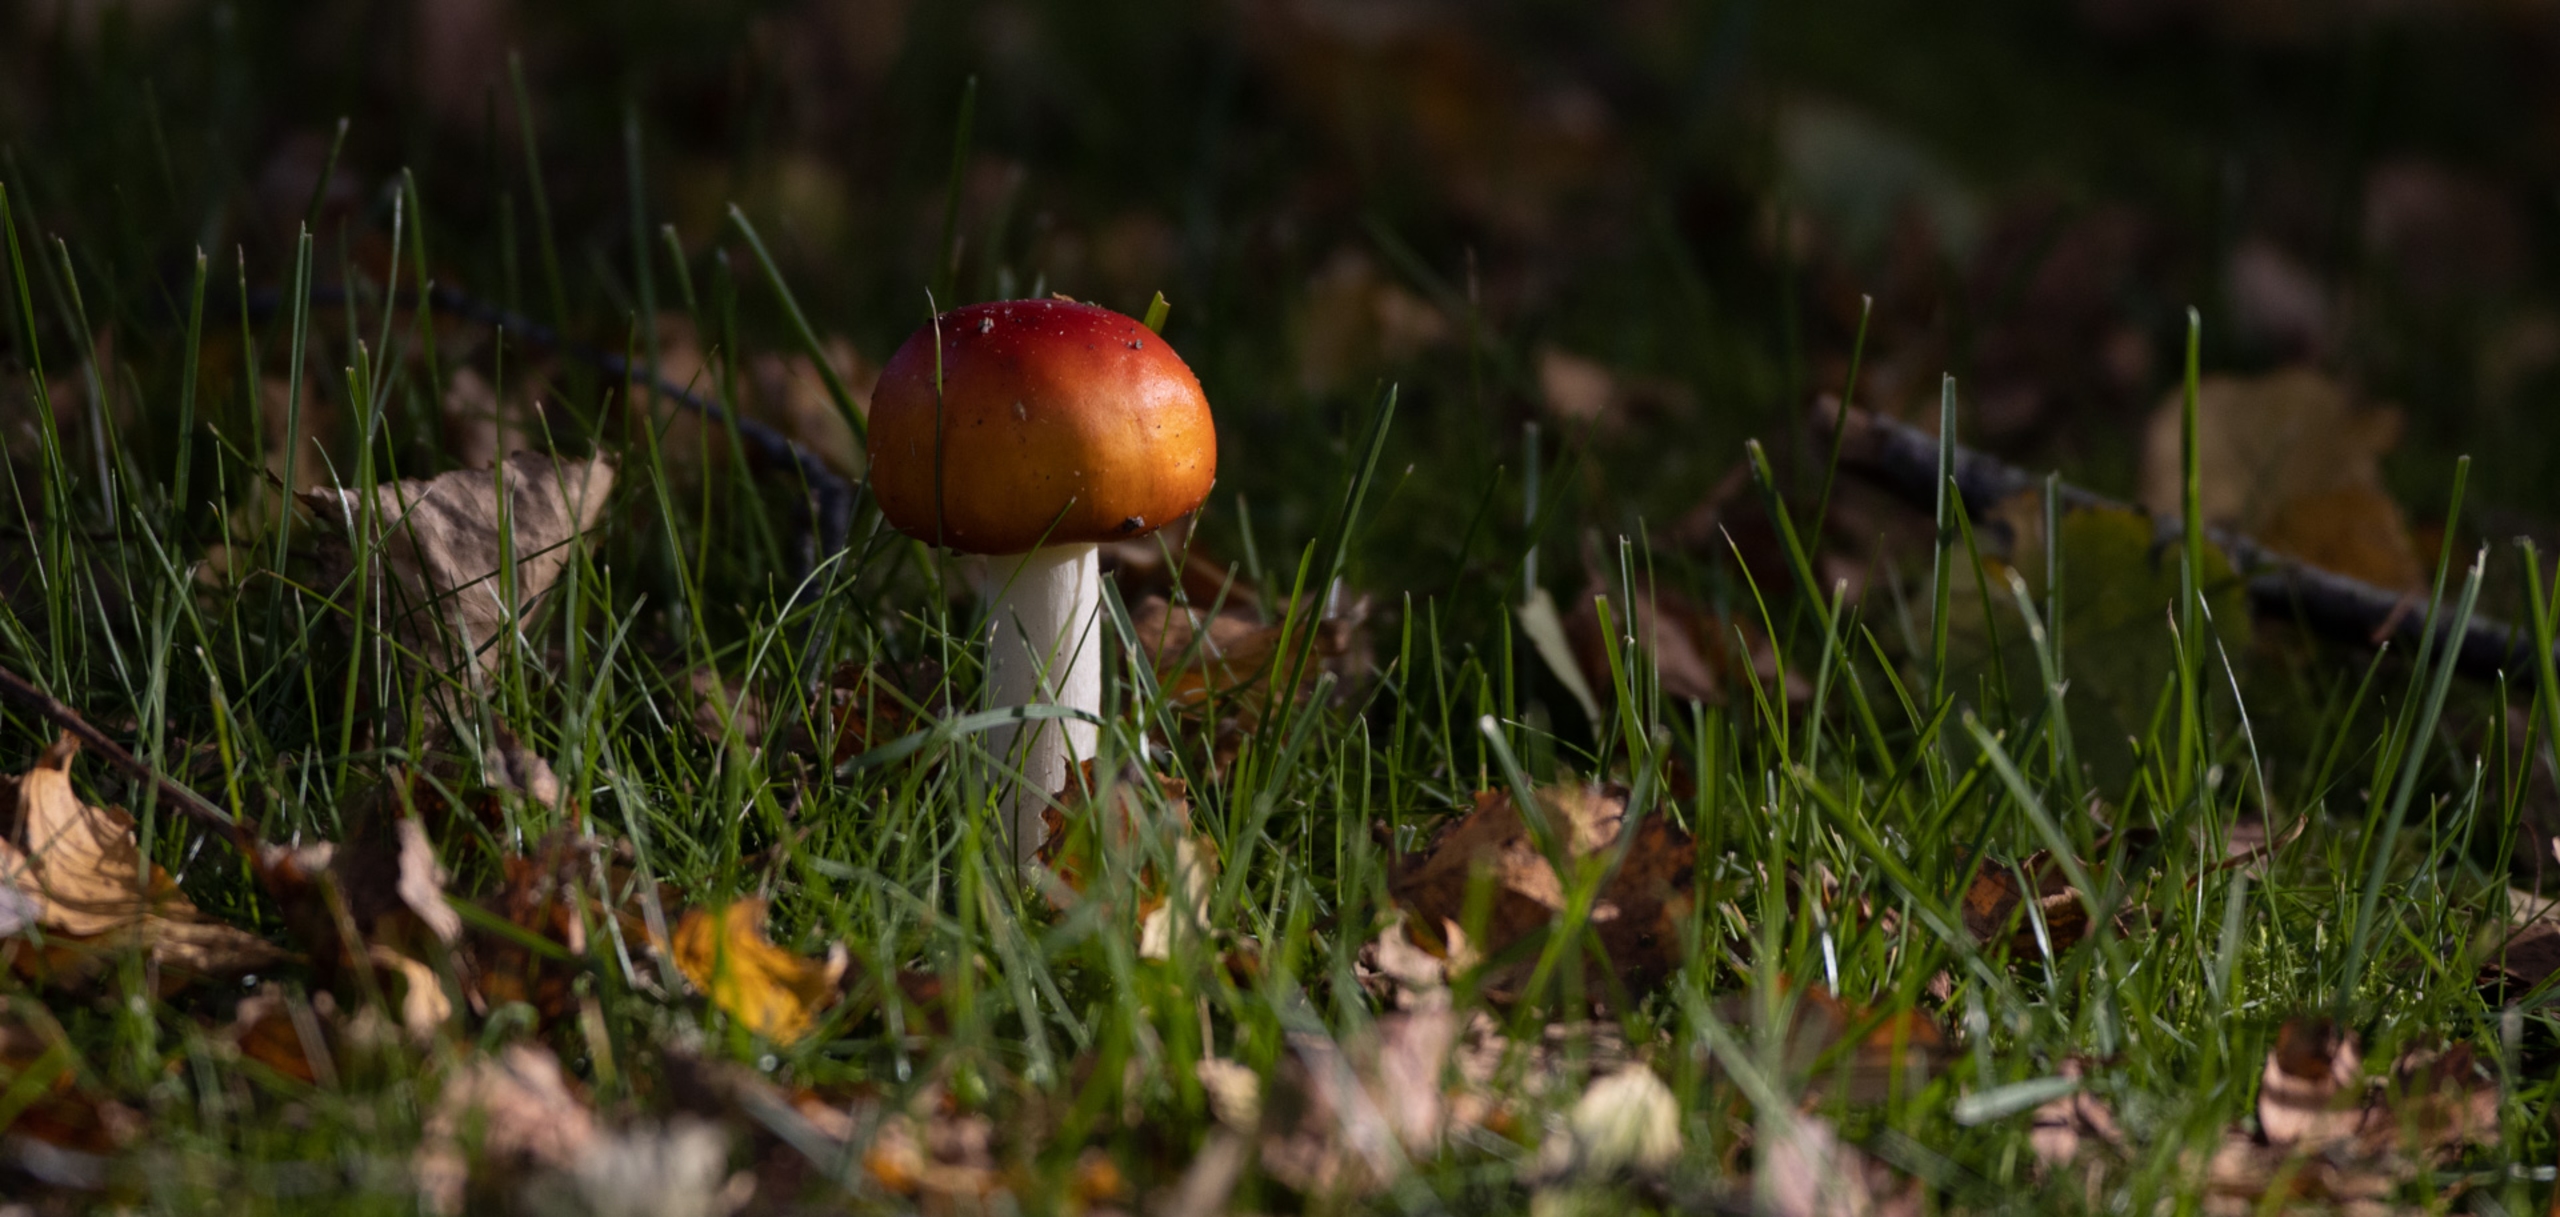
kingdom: Fungi
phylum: Basidiomycota
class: Agaricomycetes
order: Agaricales
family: Amanitaceae
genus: Amanita
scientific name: Amanita muscaria
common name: Rød fluesvamp
